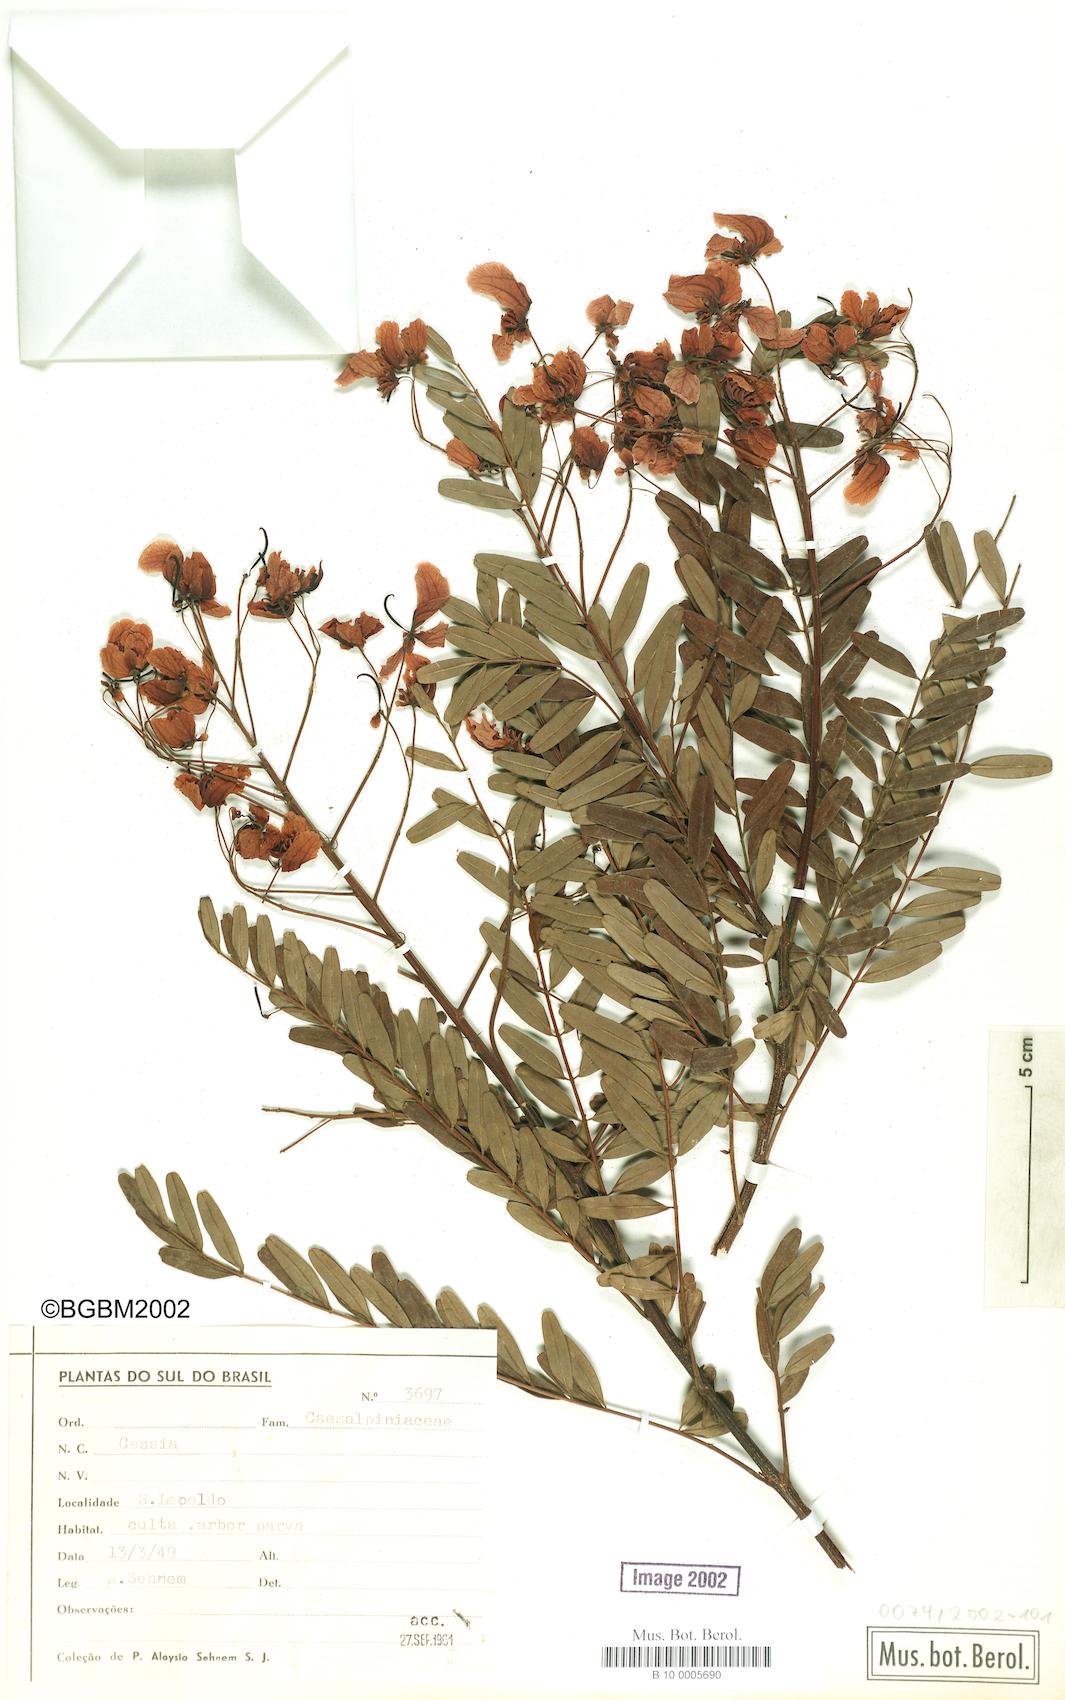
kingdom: Plantae
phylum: Tracheophyta
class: Magnoliopsida
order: Fabales
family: Fabaceae
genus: Cassia
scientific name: Cassia
